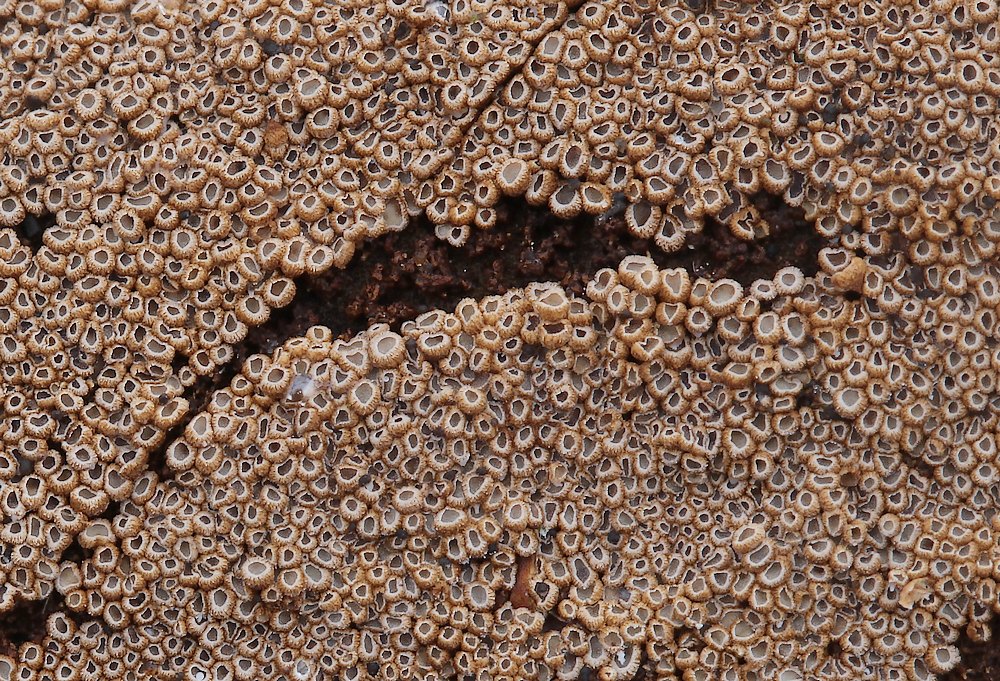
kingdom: Fungi
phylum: Basidiomycota
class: Agaricomycetes
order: Agaricales
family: Niaceae
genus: Merismodes
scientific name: Merismodes anomala
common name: almindelig læderskål
